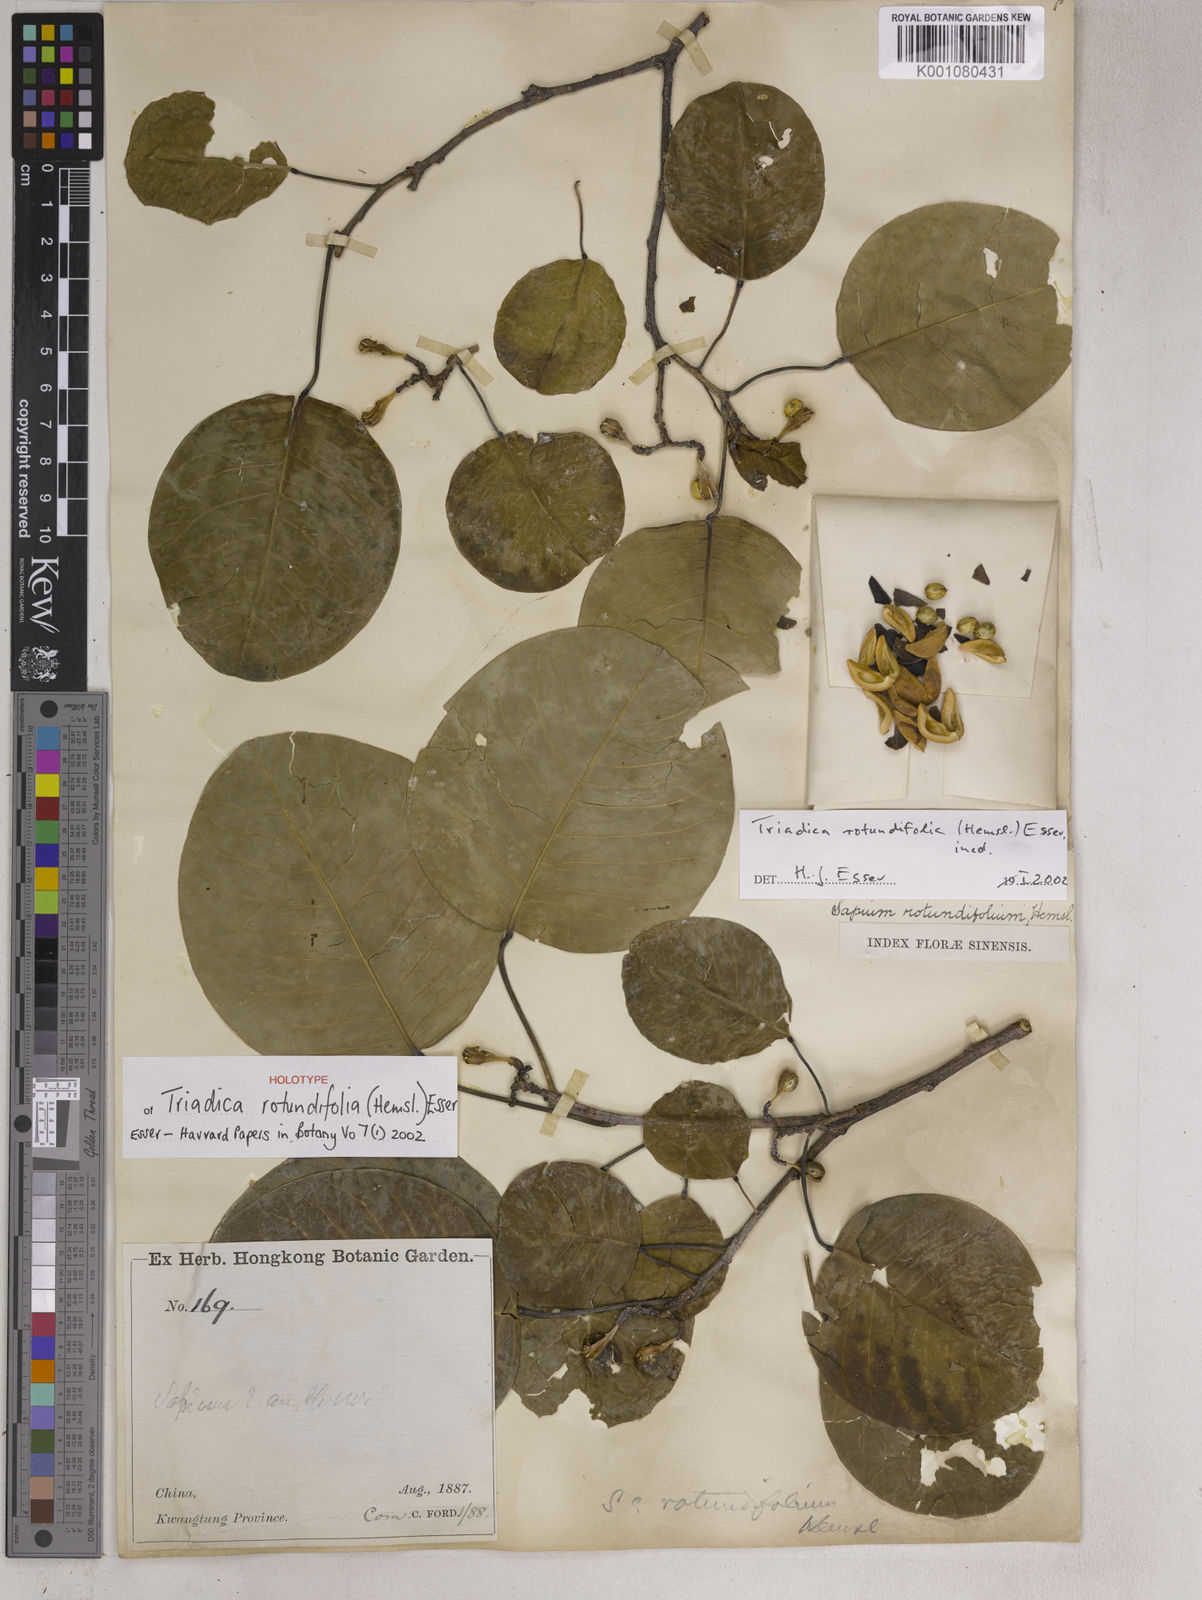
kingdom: Plantae
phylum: Tracheophyta
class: Magnoliopsida
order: Malpighiales
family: Euphorbiaceae
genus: Triadica
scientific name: Triadica rotundifolia
